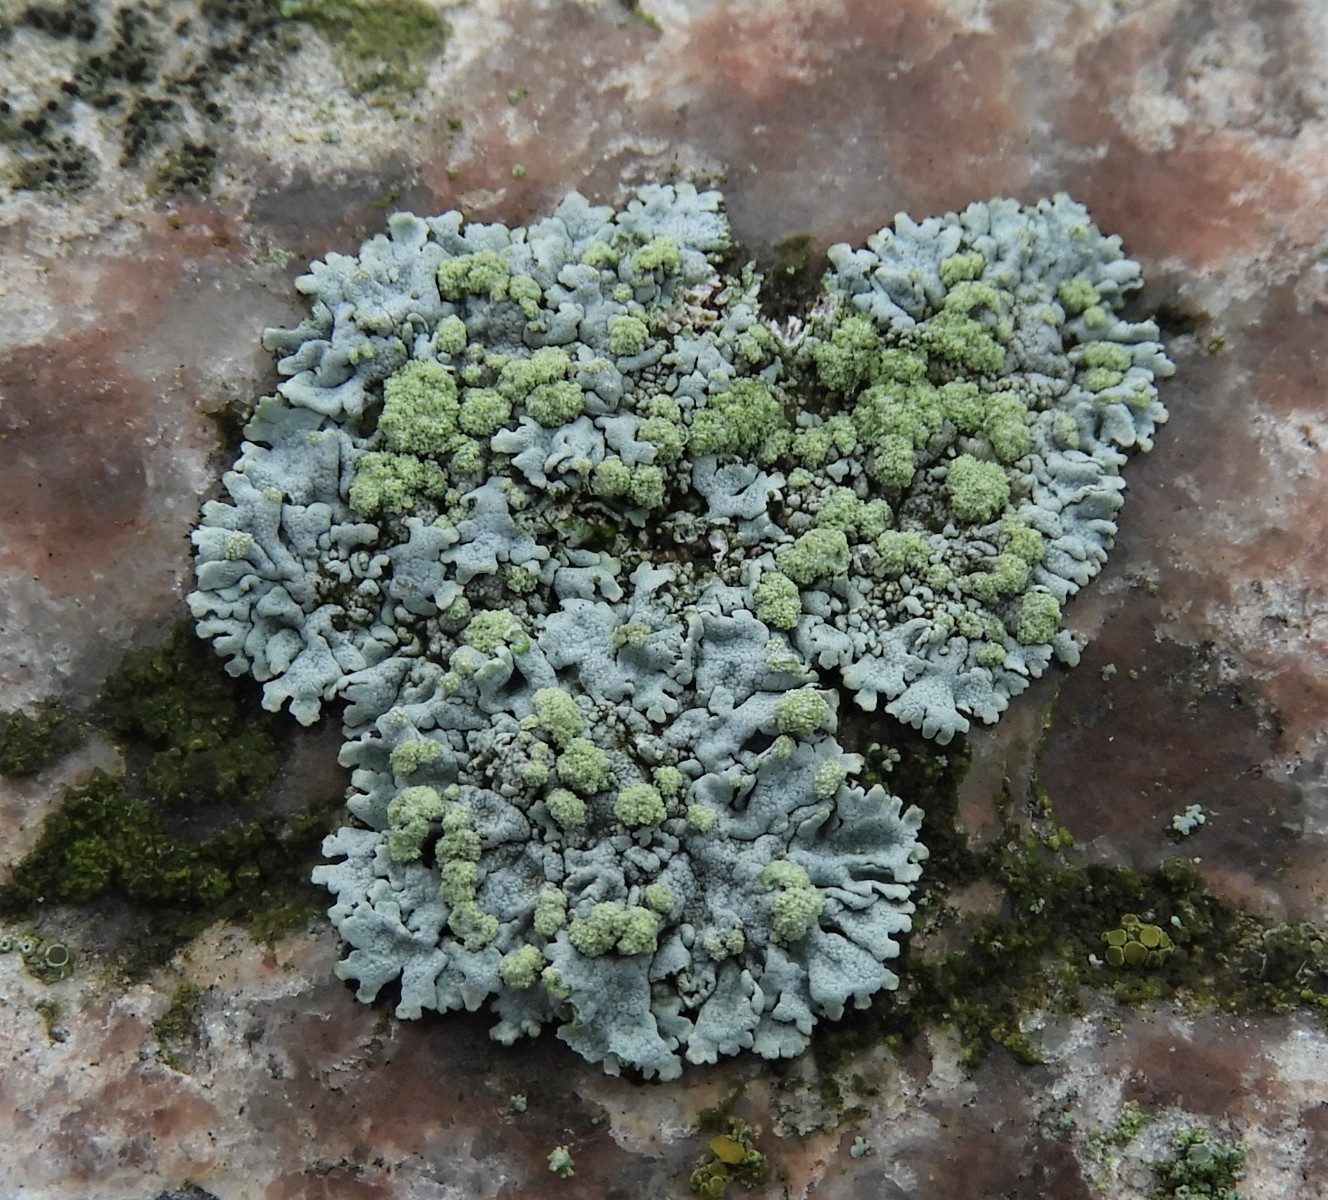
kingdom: Fungi
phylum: Ascomycota
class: Lecanoromycetes
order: Caliciales
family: Physciaceae
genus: Physcia
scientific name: Physcia caesia
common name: blågrå rosetlav
